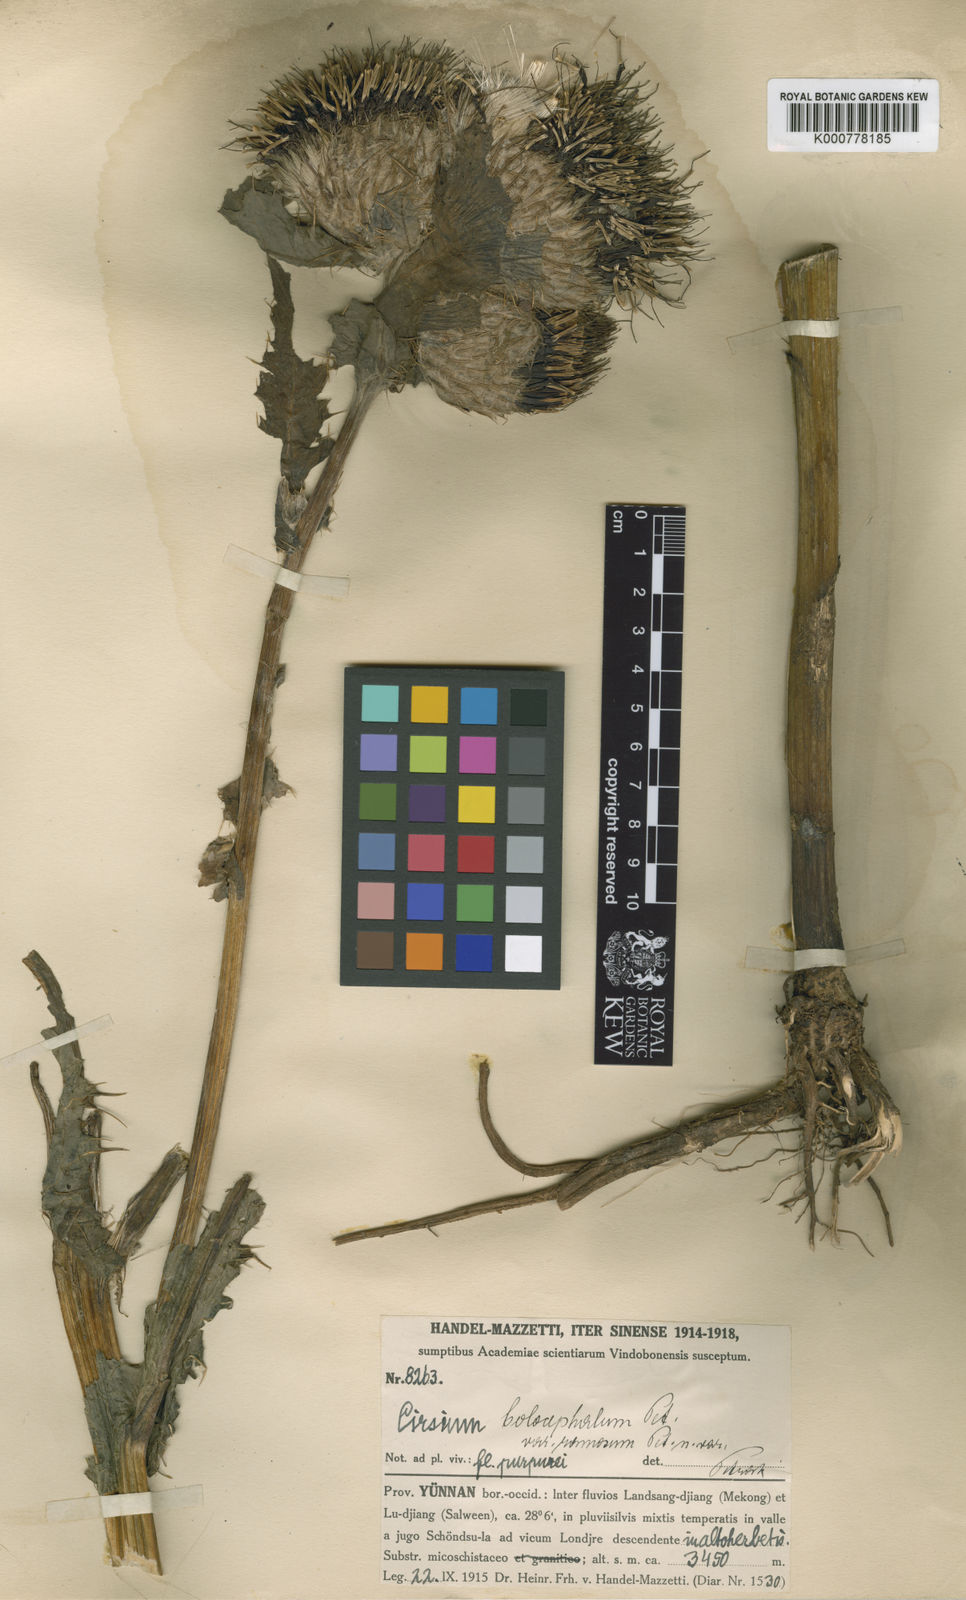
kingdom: Plantae
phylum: Tracheophyta
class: Magnoliopsida
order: Asterales
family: Asteraceae
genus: Cirsium
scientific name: Cirsium eriophoroides
